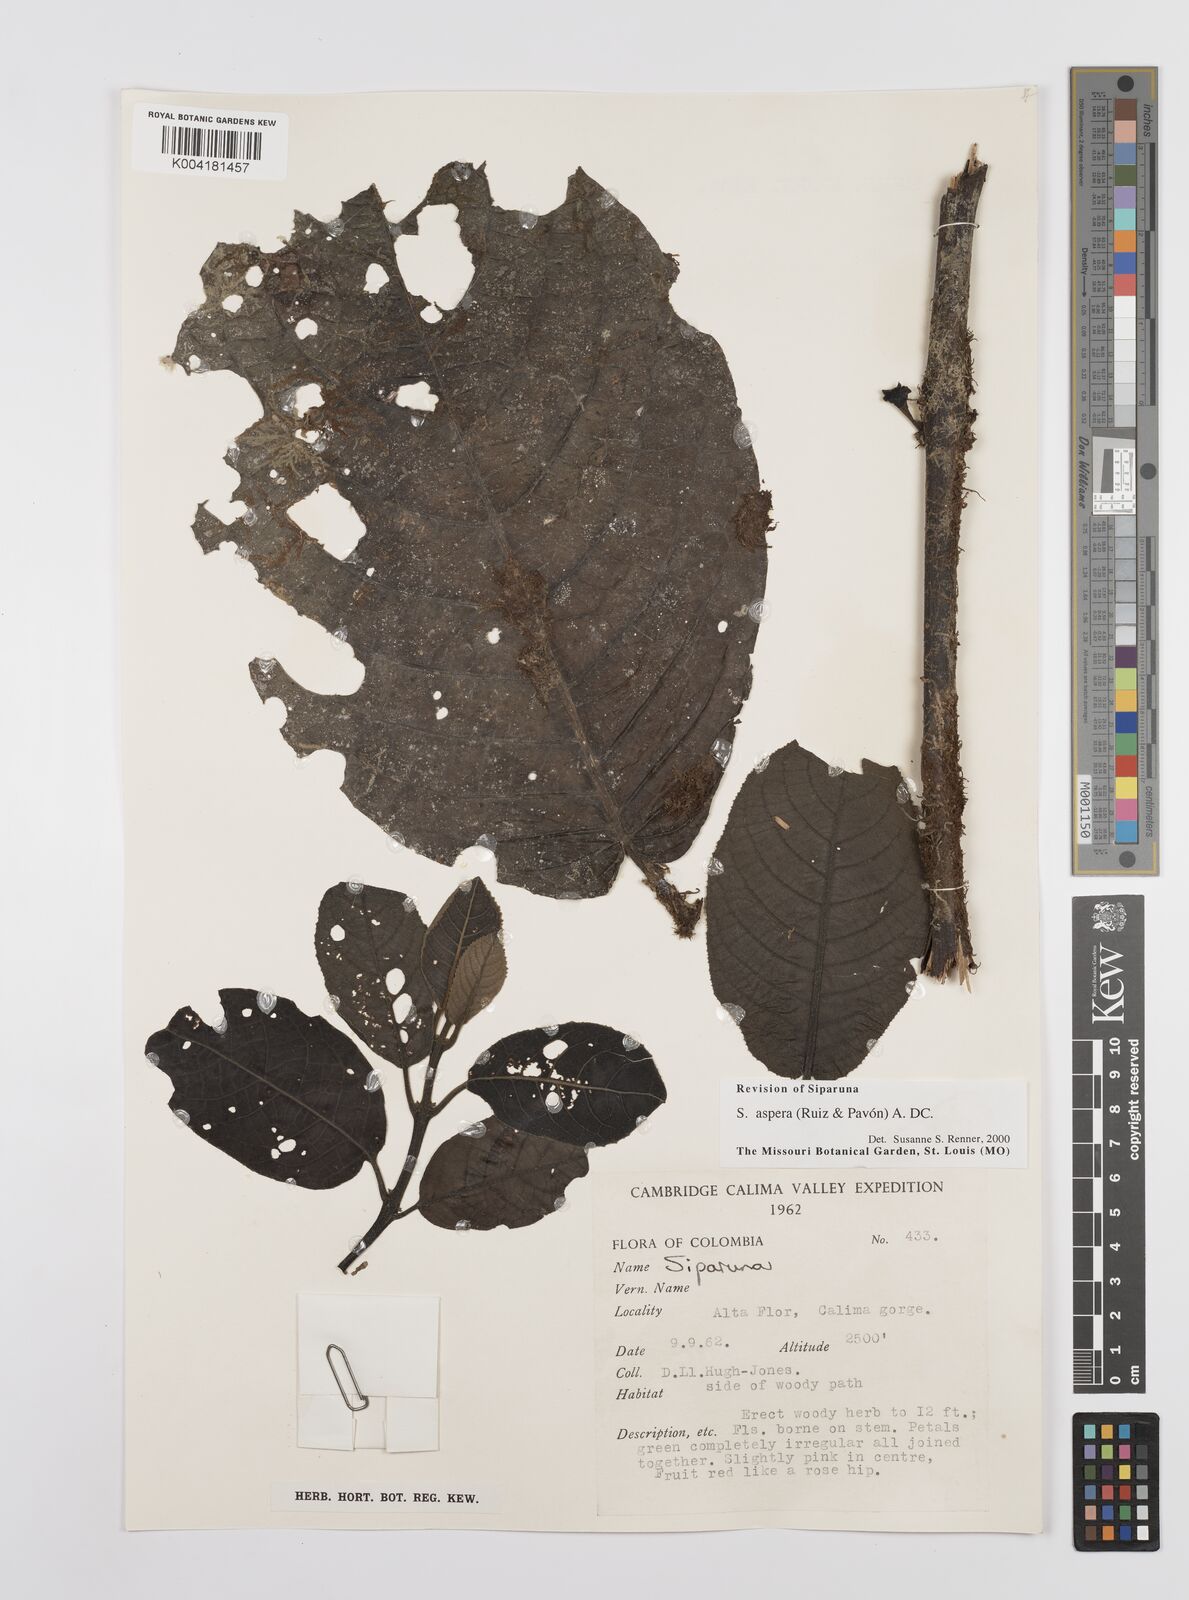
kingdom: Plantae
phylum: Tracheophyta
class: Magnoliopsida
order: Laurales
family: Siparunaceae
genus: Siparuna
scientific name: Siparuna aspera
